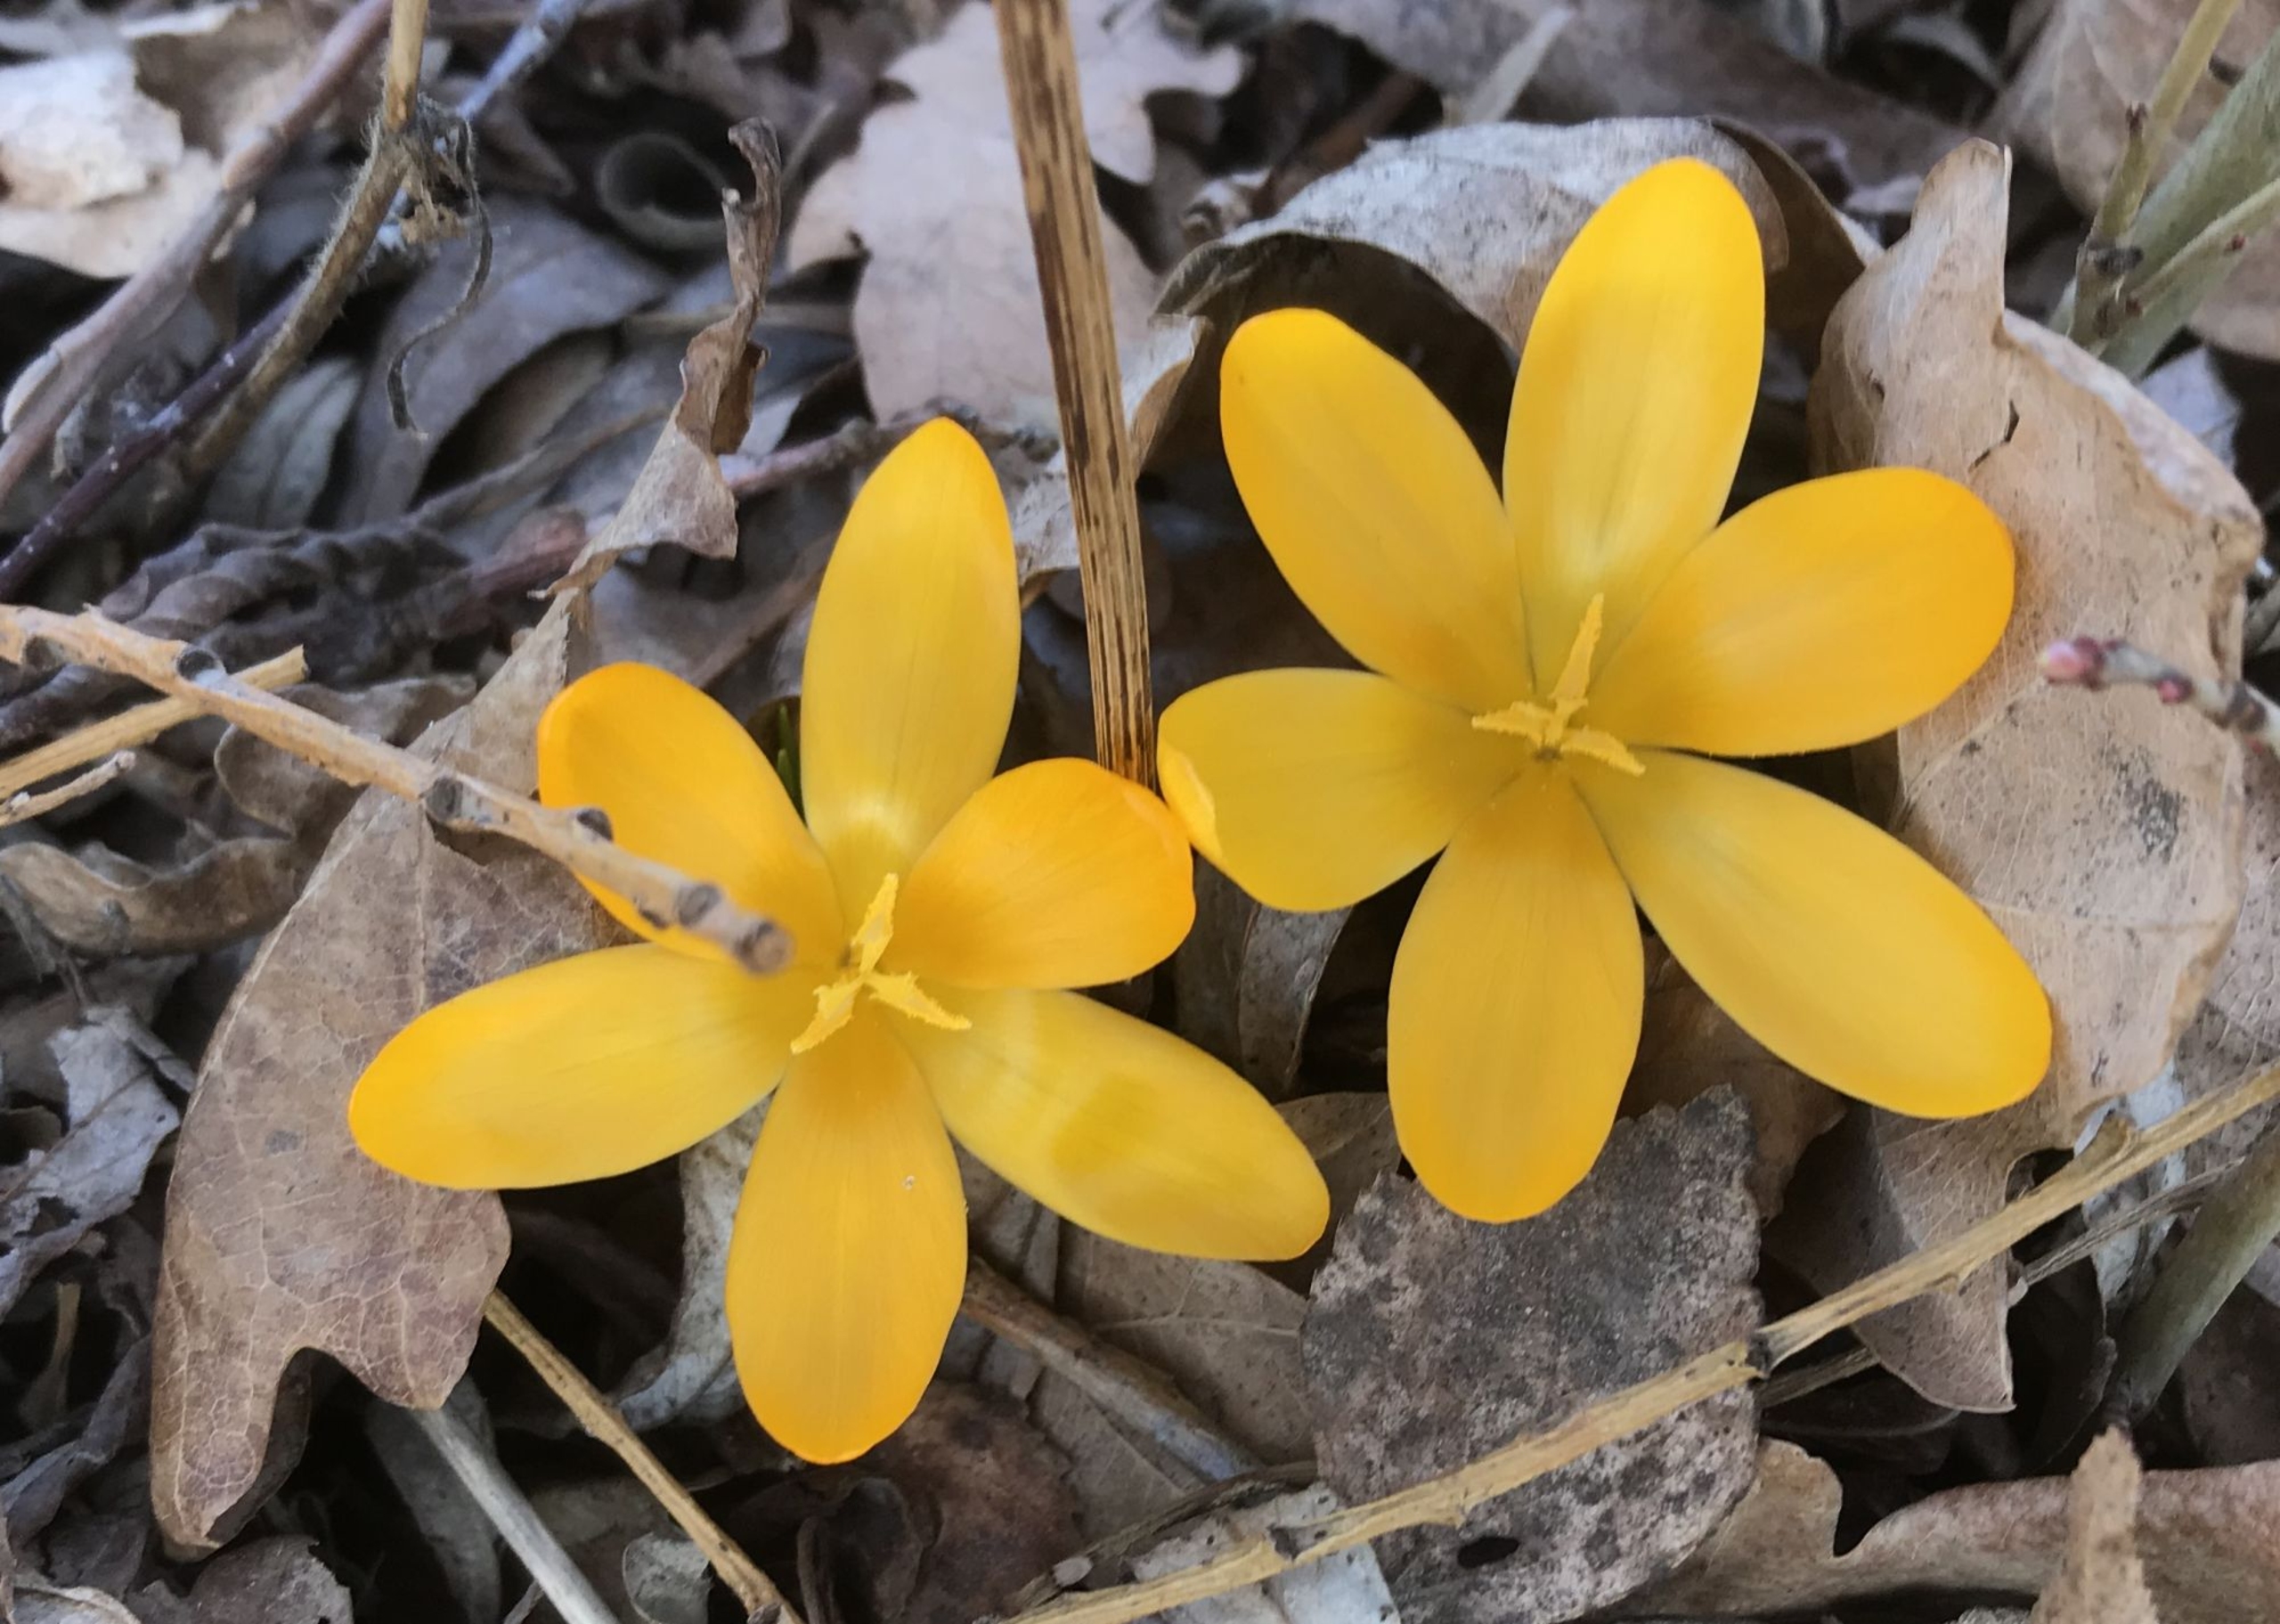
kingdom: Plantae
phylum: Tracheophyta
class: Liliopsida
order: Asparagales
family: Iridaceae
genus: Crocus
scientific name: Crocus luteus
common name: Gul krokus
